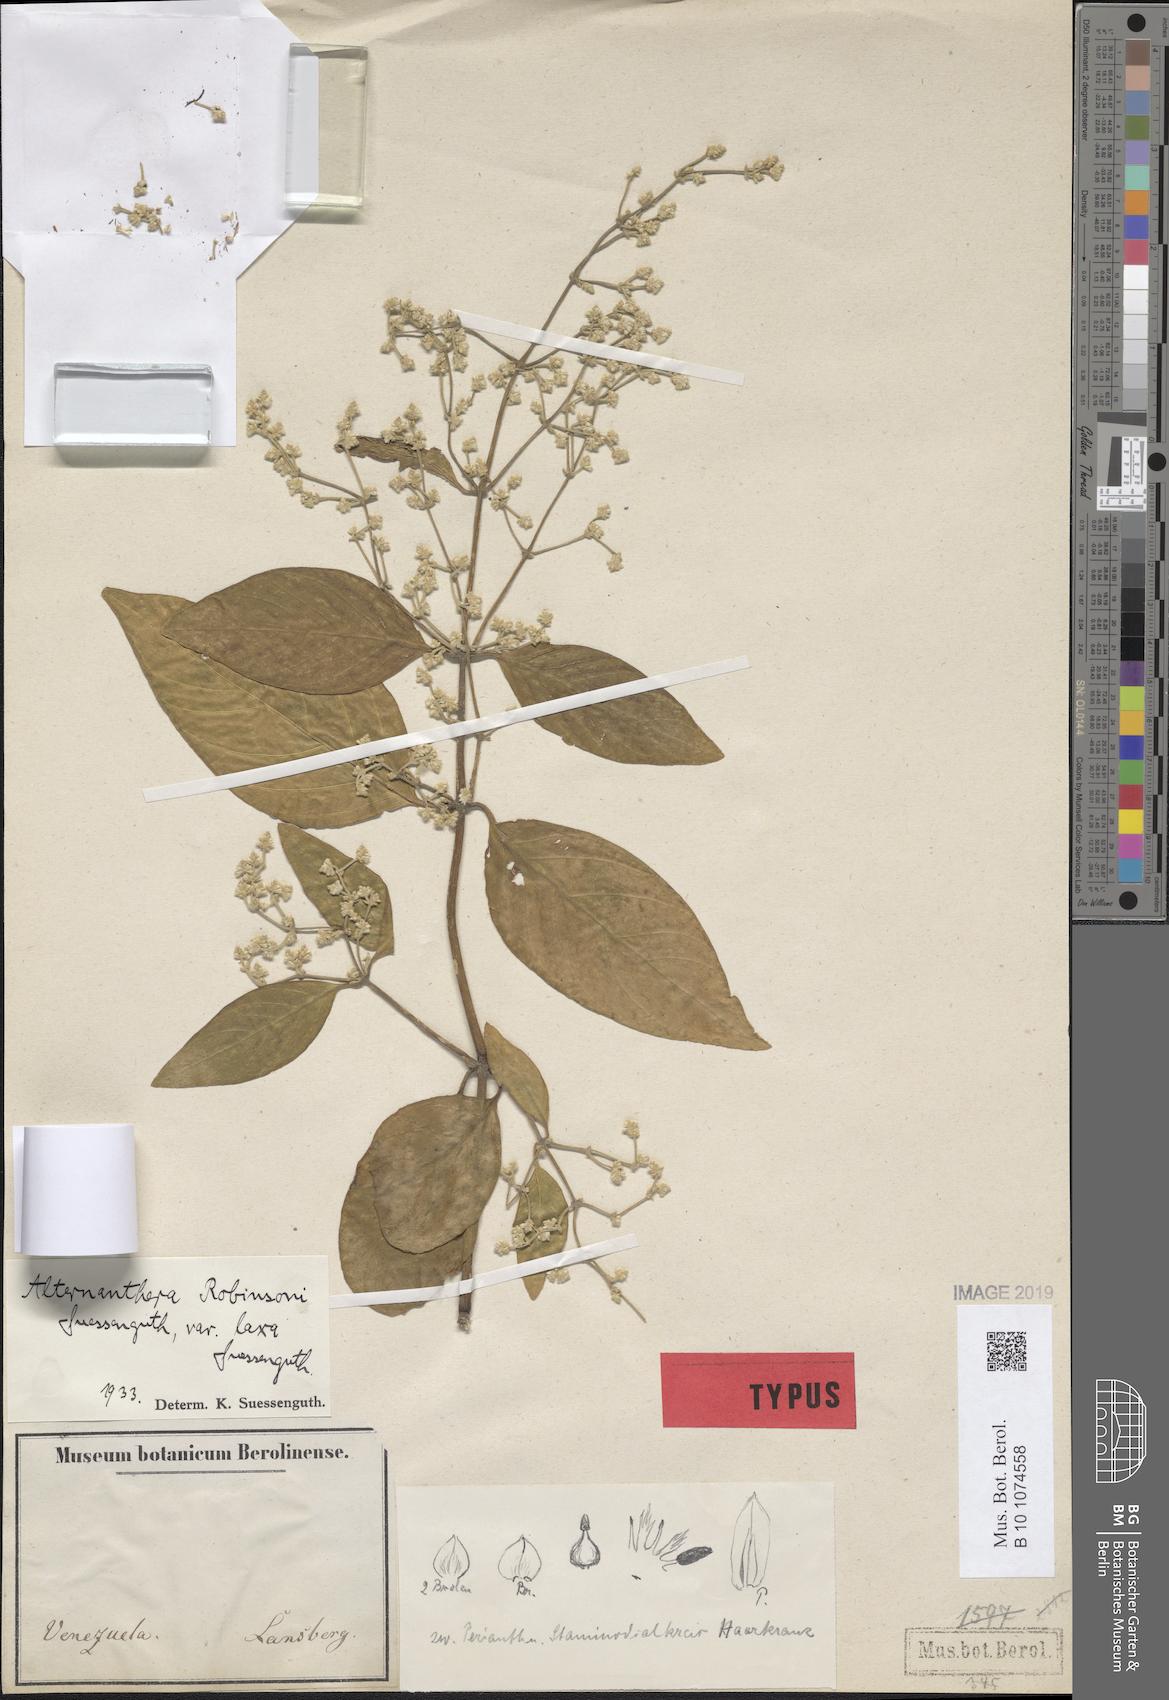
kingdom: Plantae
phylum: Tracheophyta
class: Magnoliopsida
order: Caryophyllales
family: Amaranthaceae
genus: Alternanthera
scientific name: Alternanthera robinsonii
